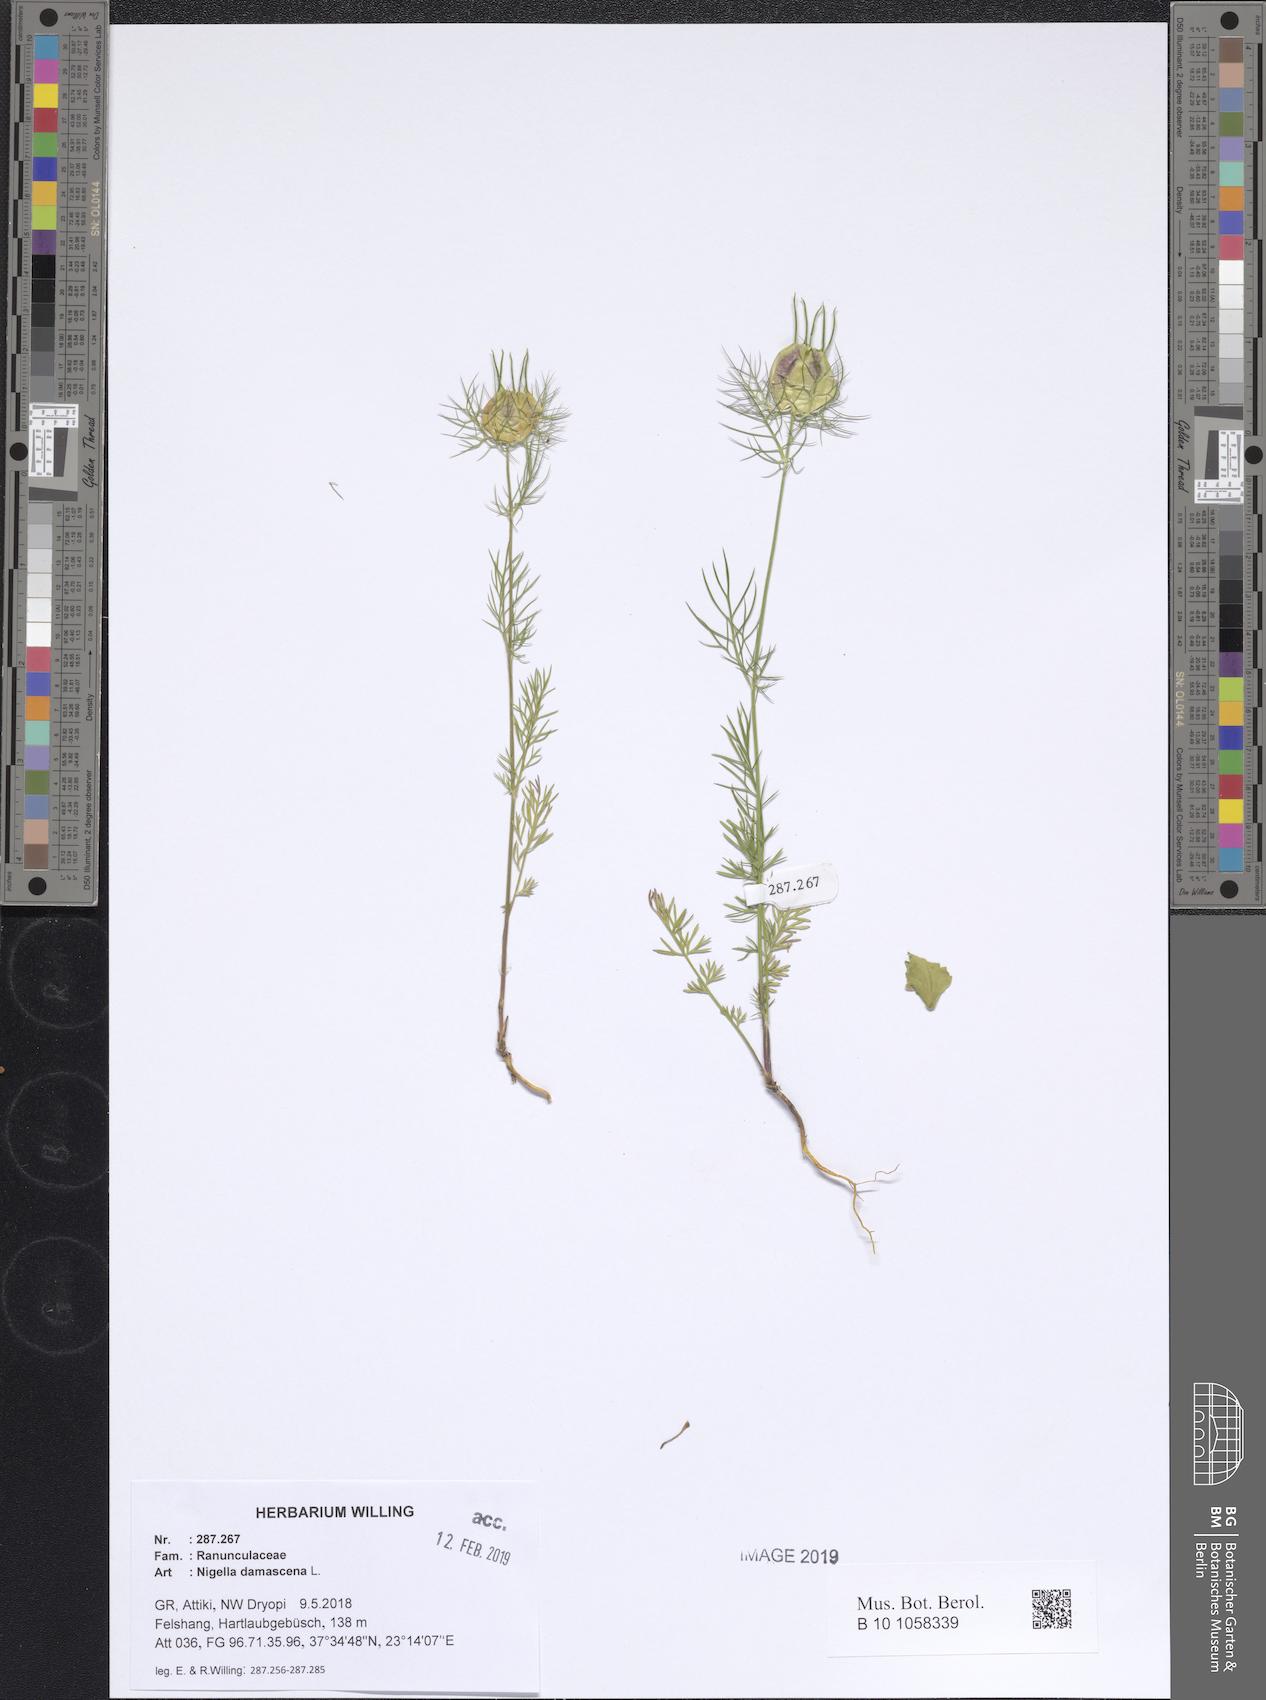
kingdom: Plantae
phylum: Tracheophyta
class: Magnoliopsida
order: Ranunculales
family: Ranunculaceae
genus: Nigella
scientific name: Nigella damascena
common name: Love-in-a-mist
